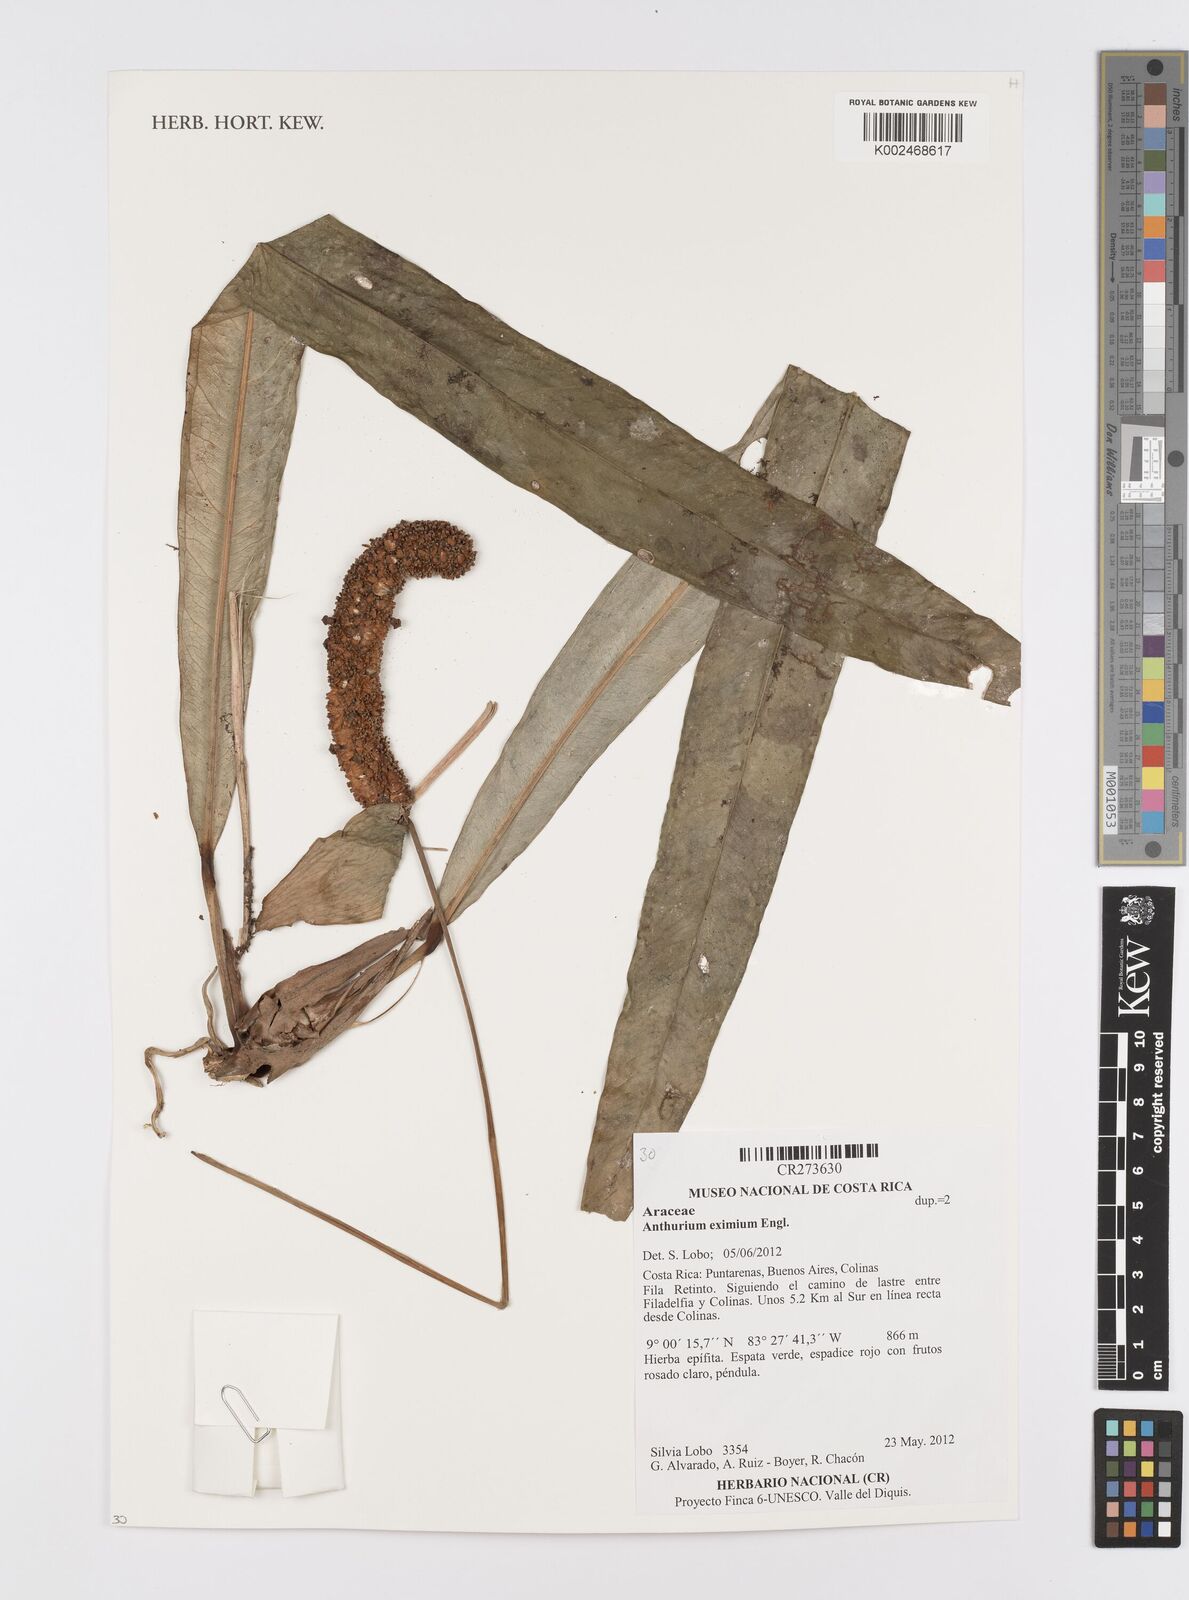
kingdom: Plantae
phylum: Tracheophyta
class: Liliopsida
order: Alismatales
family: Araceae
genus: Anthurium
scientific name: Anthurium eximium
